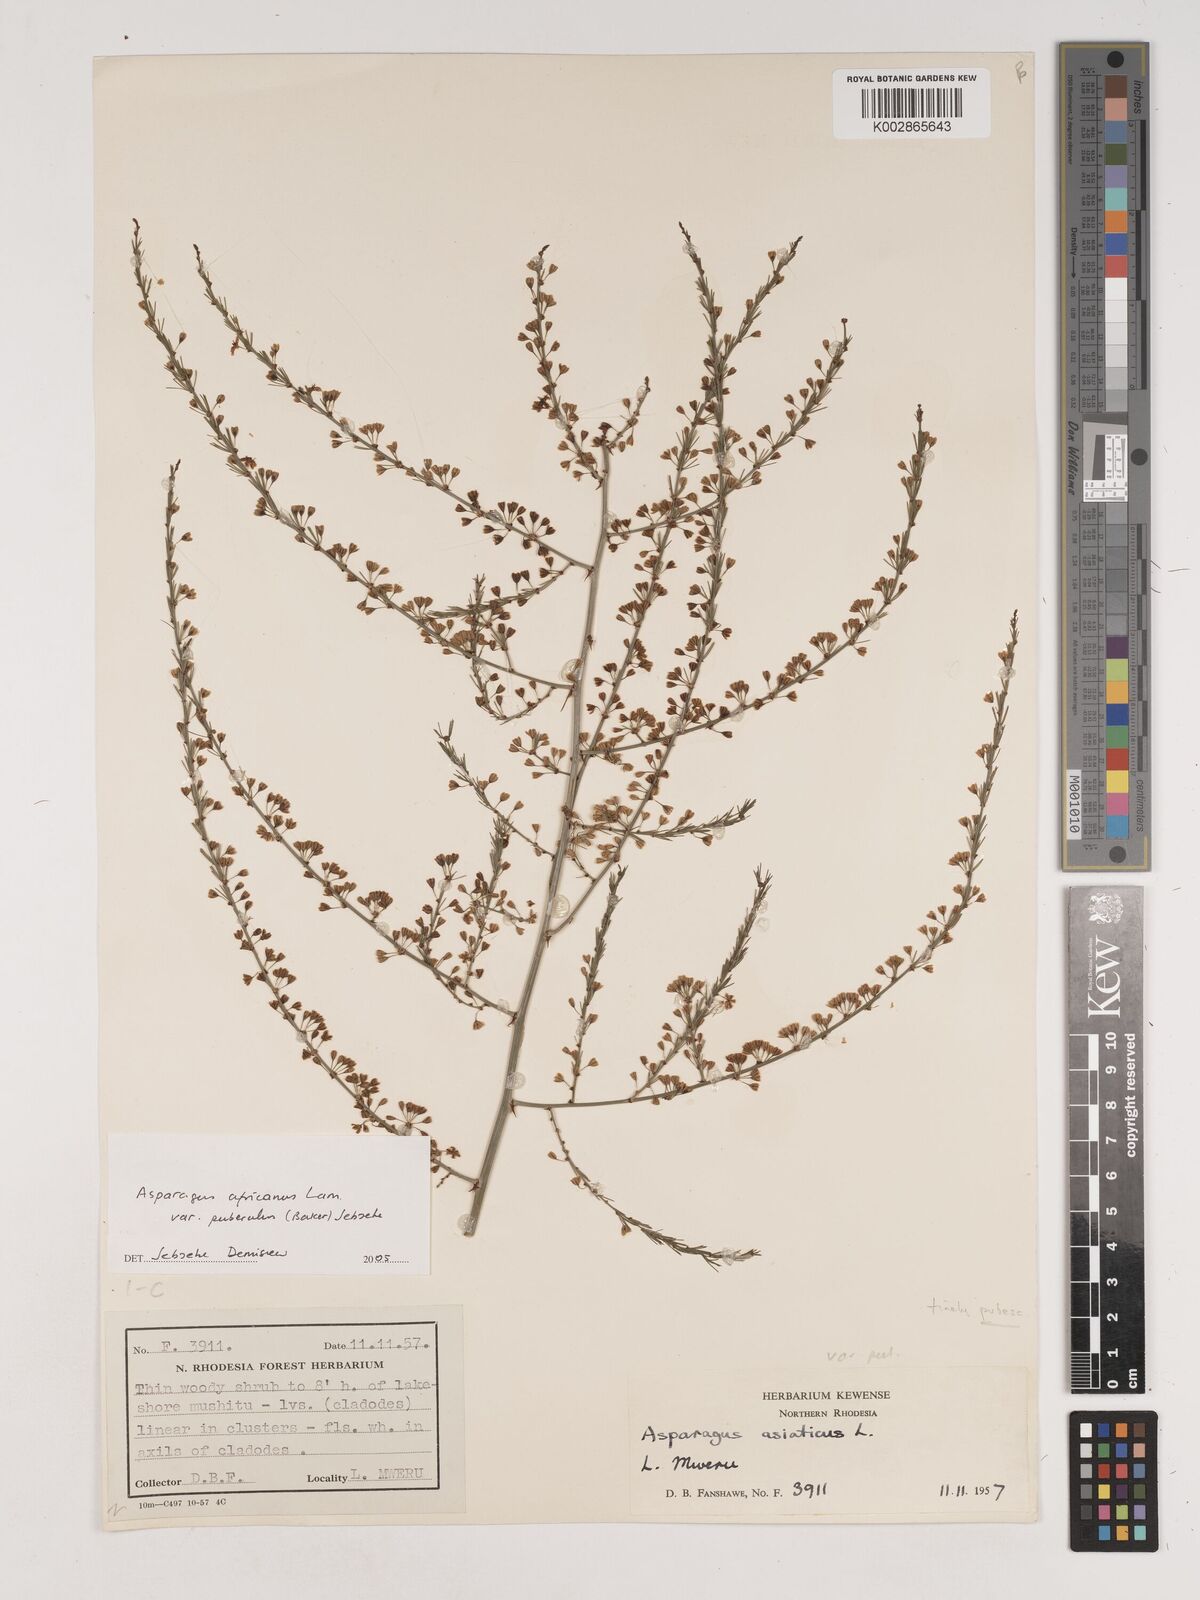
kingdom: Plantae
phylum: Tracheophyta
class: Liliopsida
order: Asparagales
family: Asparagaceae
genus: Asparagus
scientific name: Asparagus africanus
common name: Asparagus-fern
